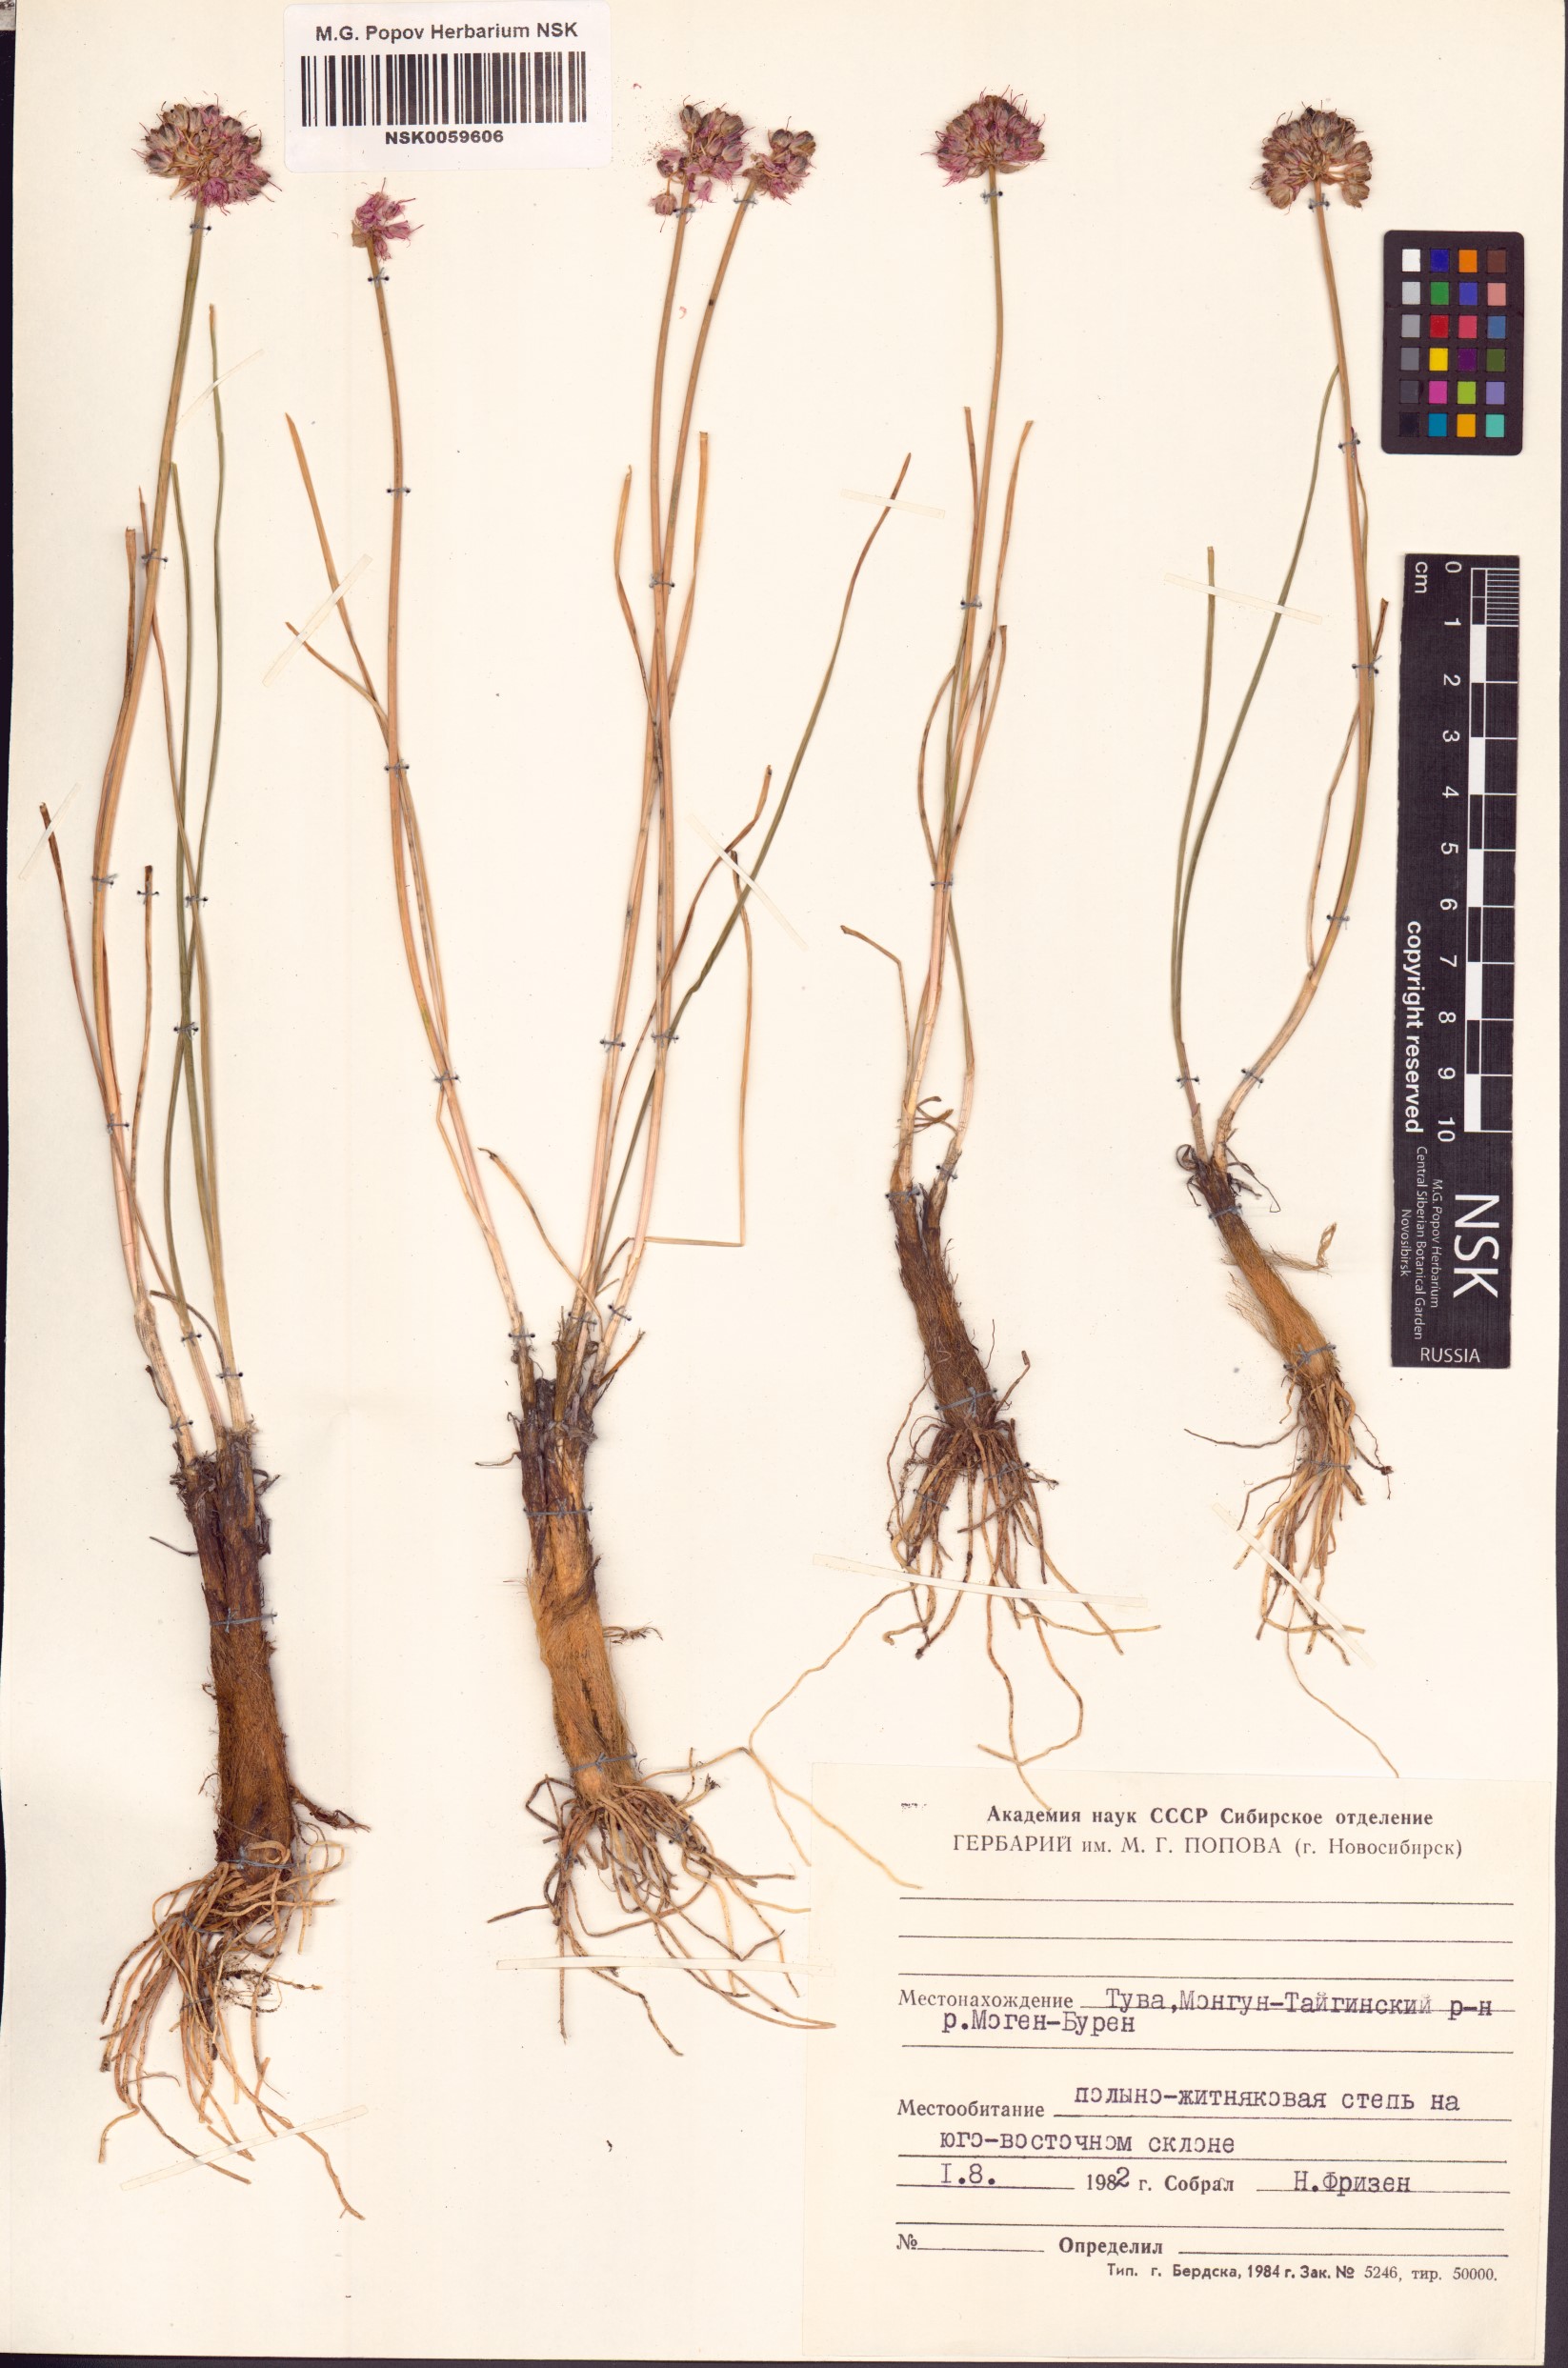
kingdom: Plantae
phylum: Tracheophyta
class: Liliopsida
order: Asparagales
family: Amaryllidaceae
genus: Allium
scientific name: Allium strictum
